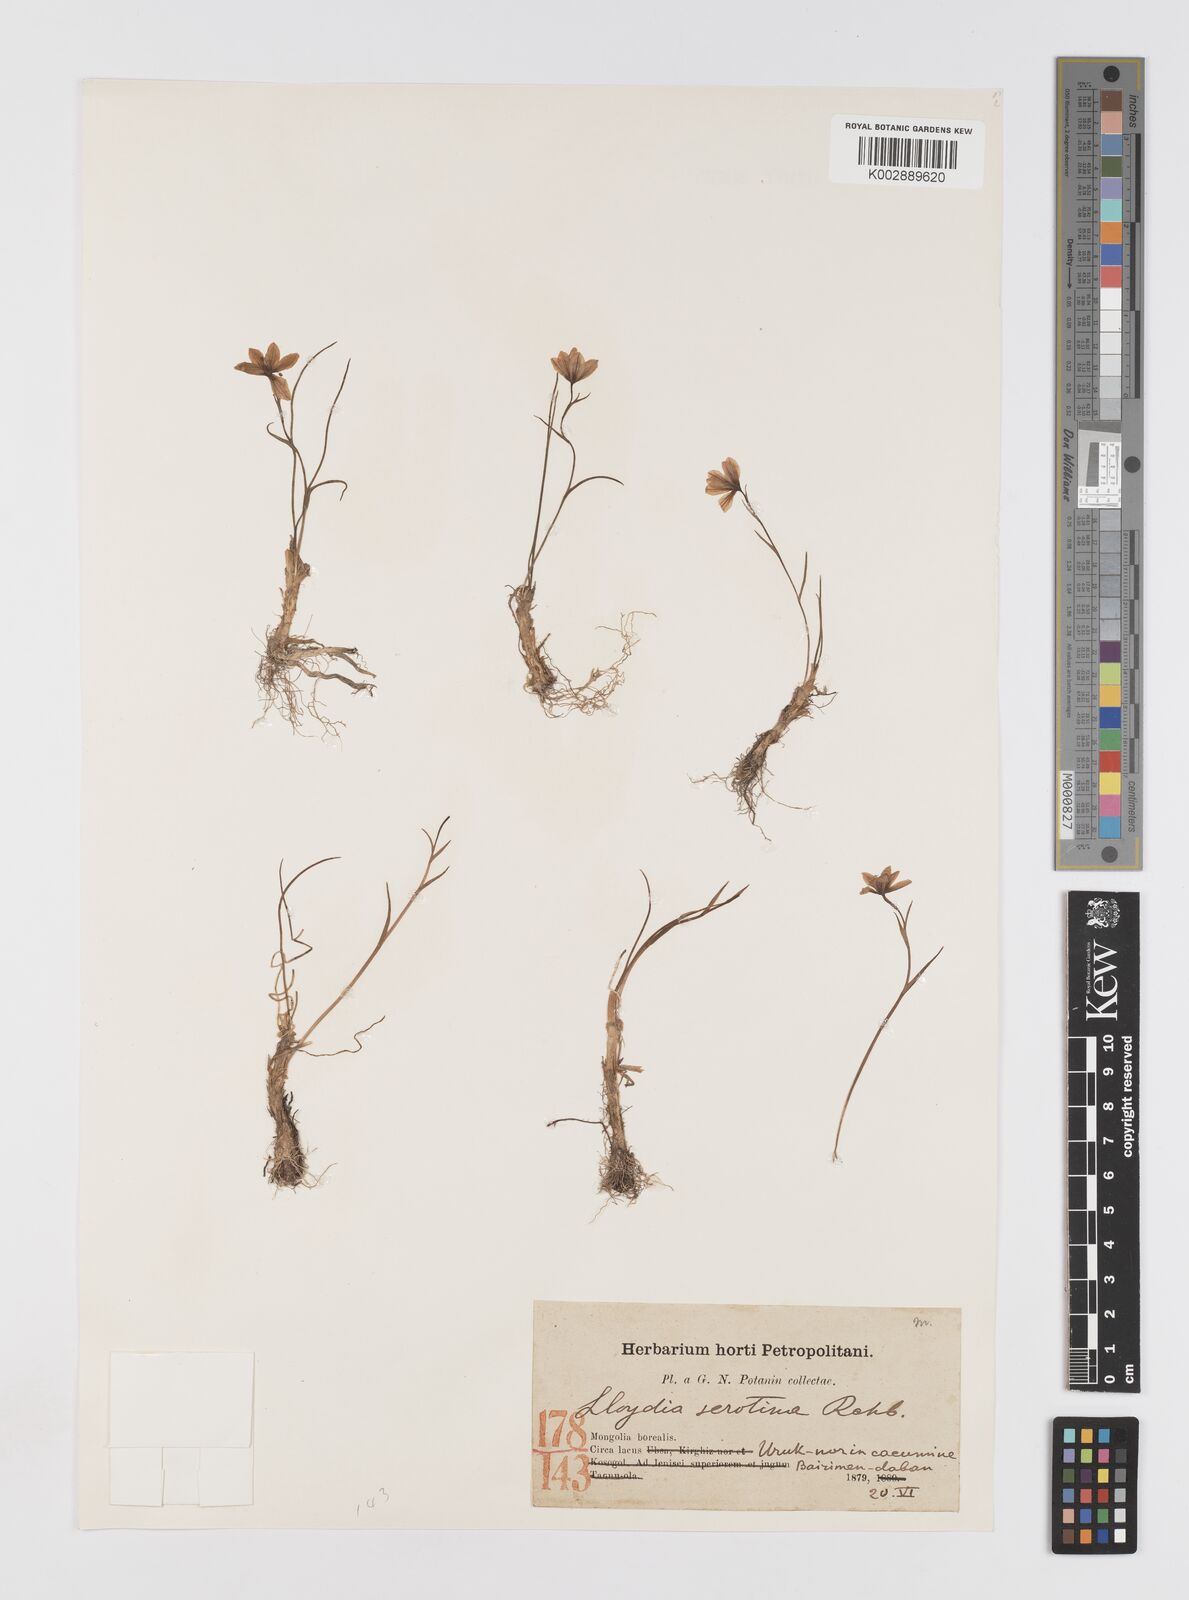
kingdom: Plantae
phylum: Tracheophyta
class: Liliopsida
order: Liliales
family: Liliaceae
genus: Gagea
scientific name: Gagea serotina
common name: Snowdon lily
